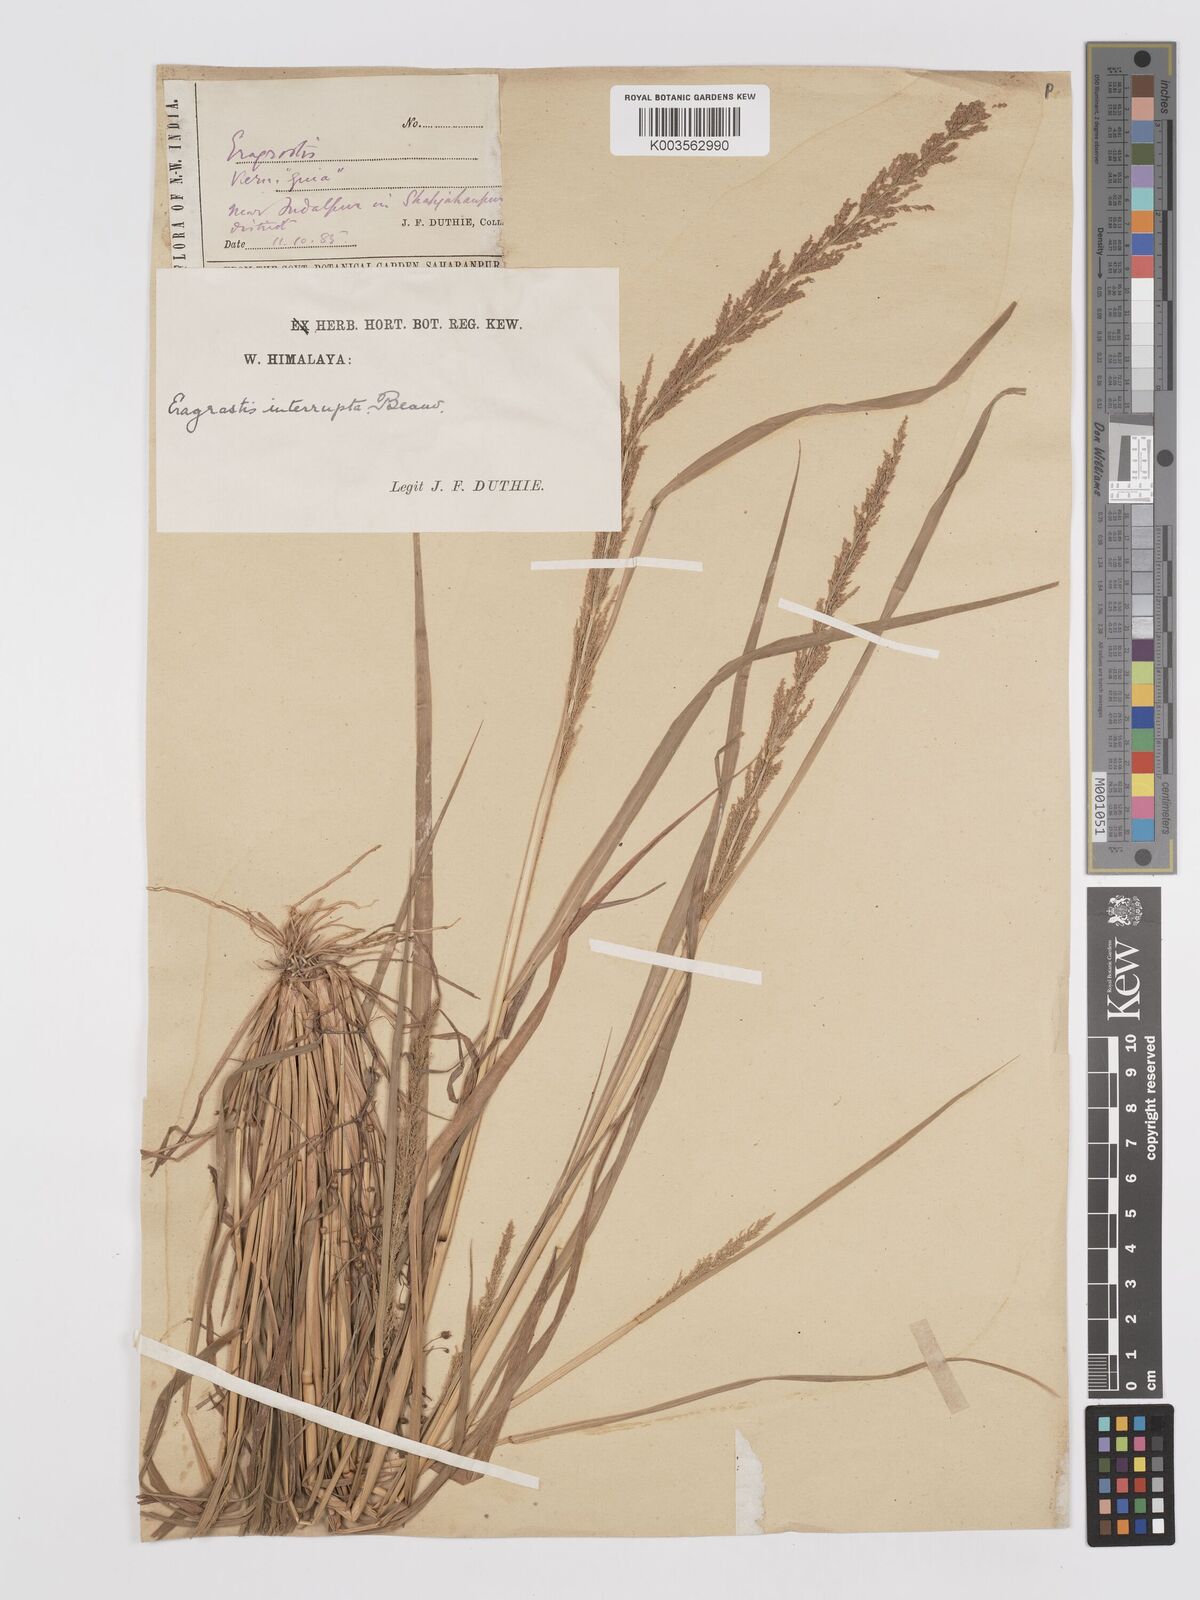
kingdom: Plantae
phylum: Tracheophyta
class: Liliopsida
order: Poales
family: Poaceae
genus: Eragrostis
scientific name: Eragrostis japonica
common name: Pond lovegrass
